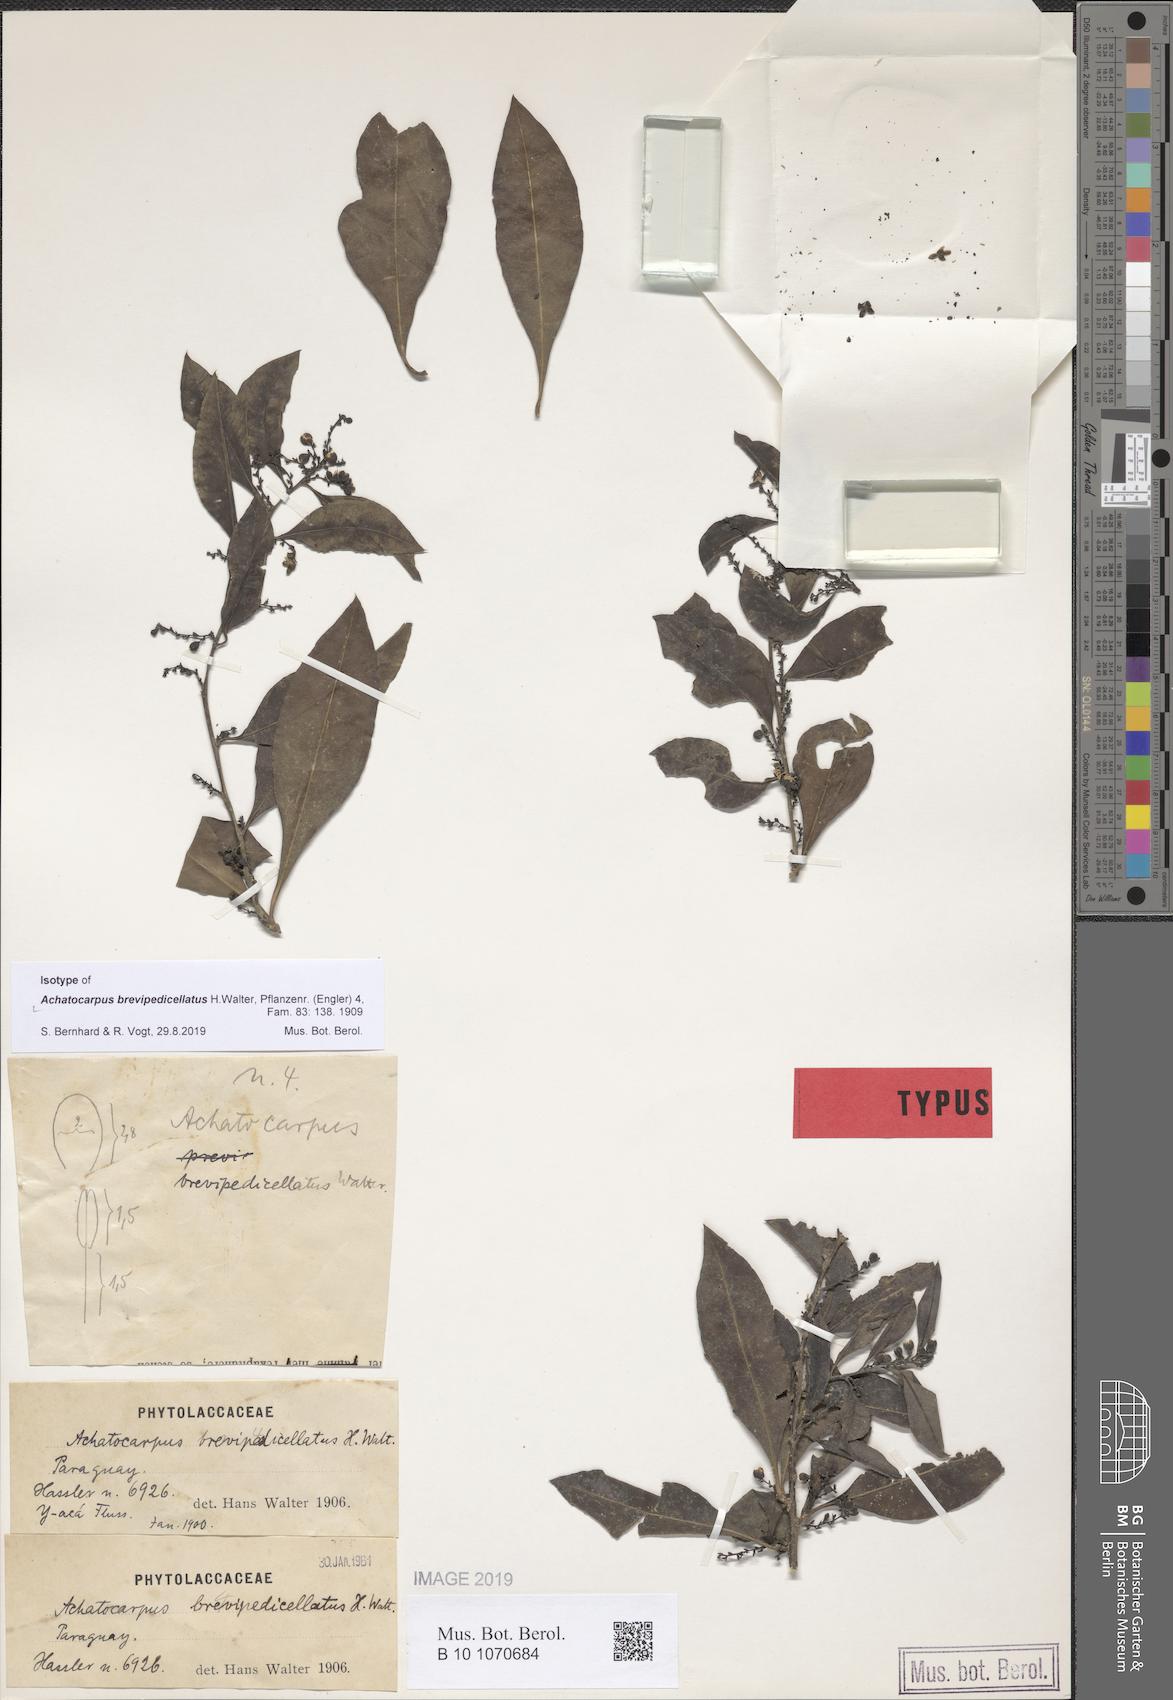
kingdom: Plantae
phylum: Tracheophyta
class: Magnoliopsida
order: Caryophyllales
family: Achatocarpaceae
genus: Achatocarpus
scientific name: Achatocarpus brevipedicellatus
